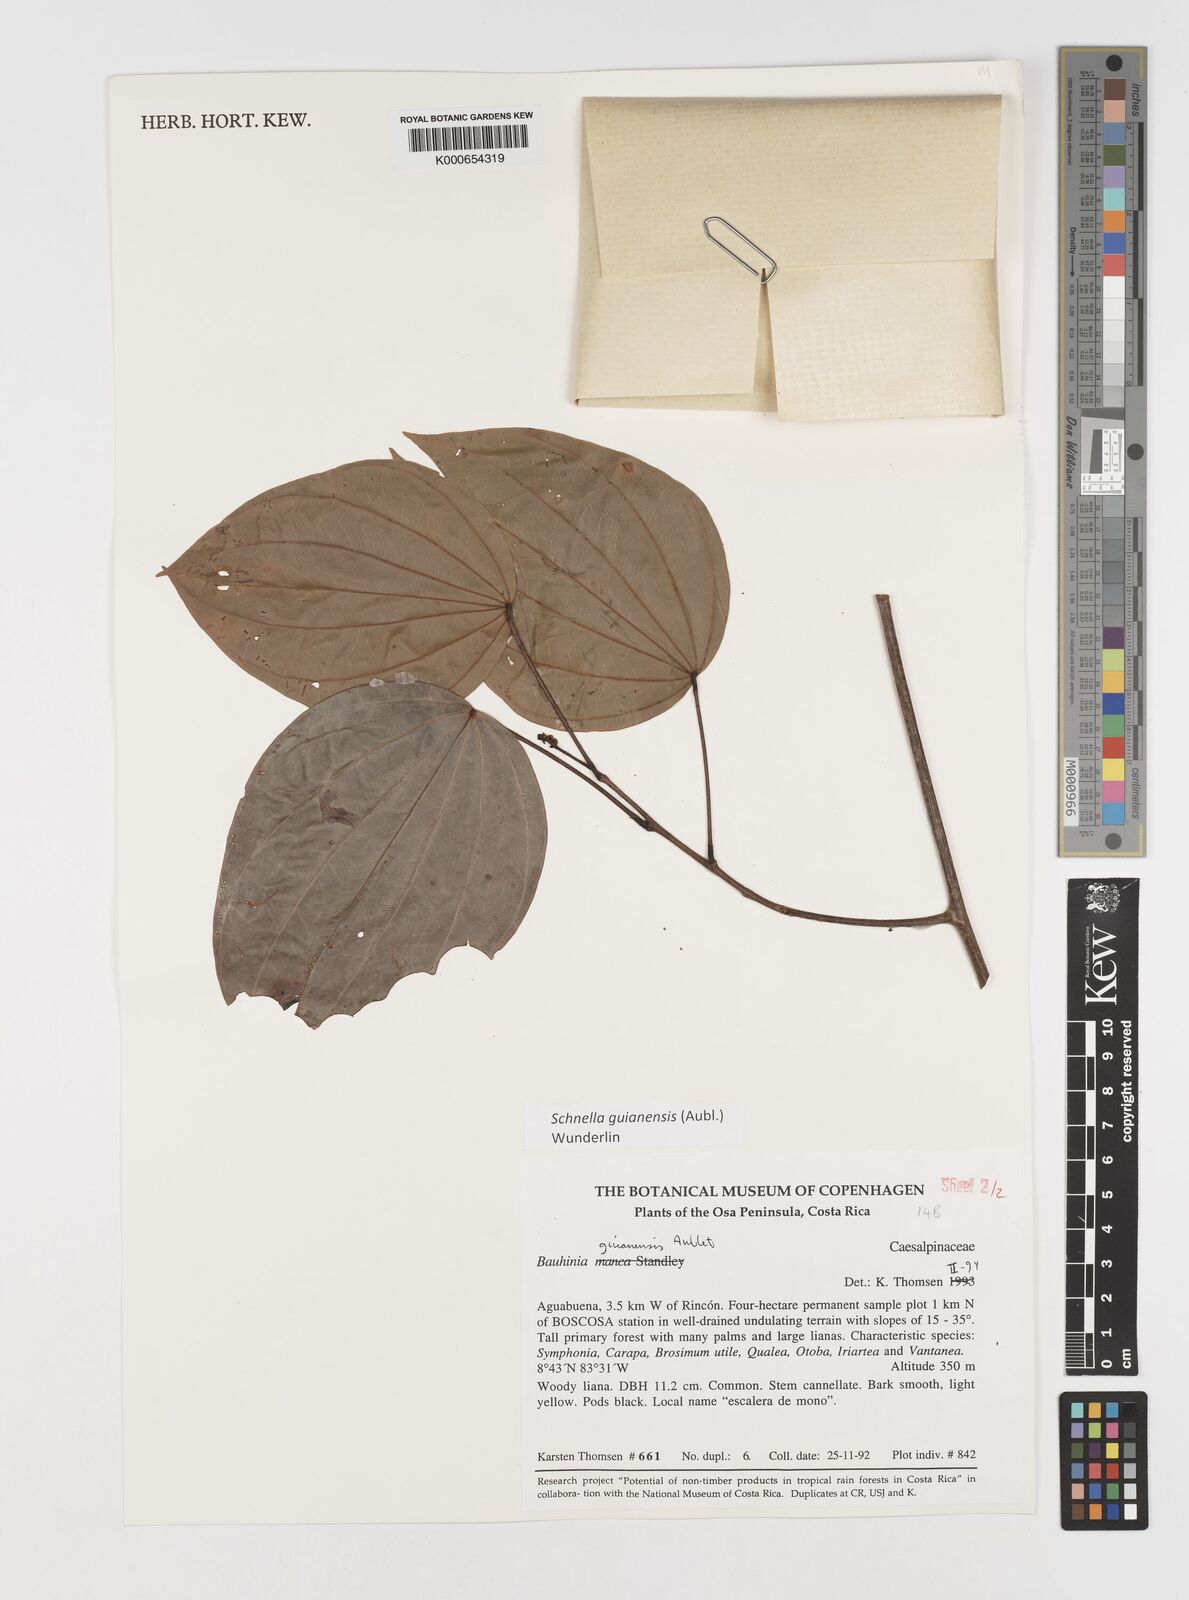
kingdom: Plantae
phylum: Tracheophyta
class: Magnoliopsida
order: Fabales
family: Fabaceae
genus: Schnella
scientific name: Schnella guianensis
